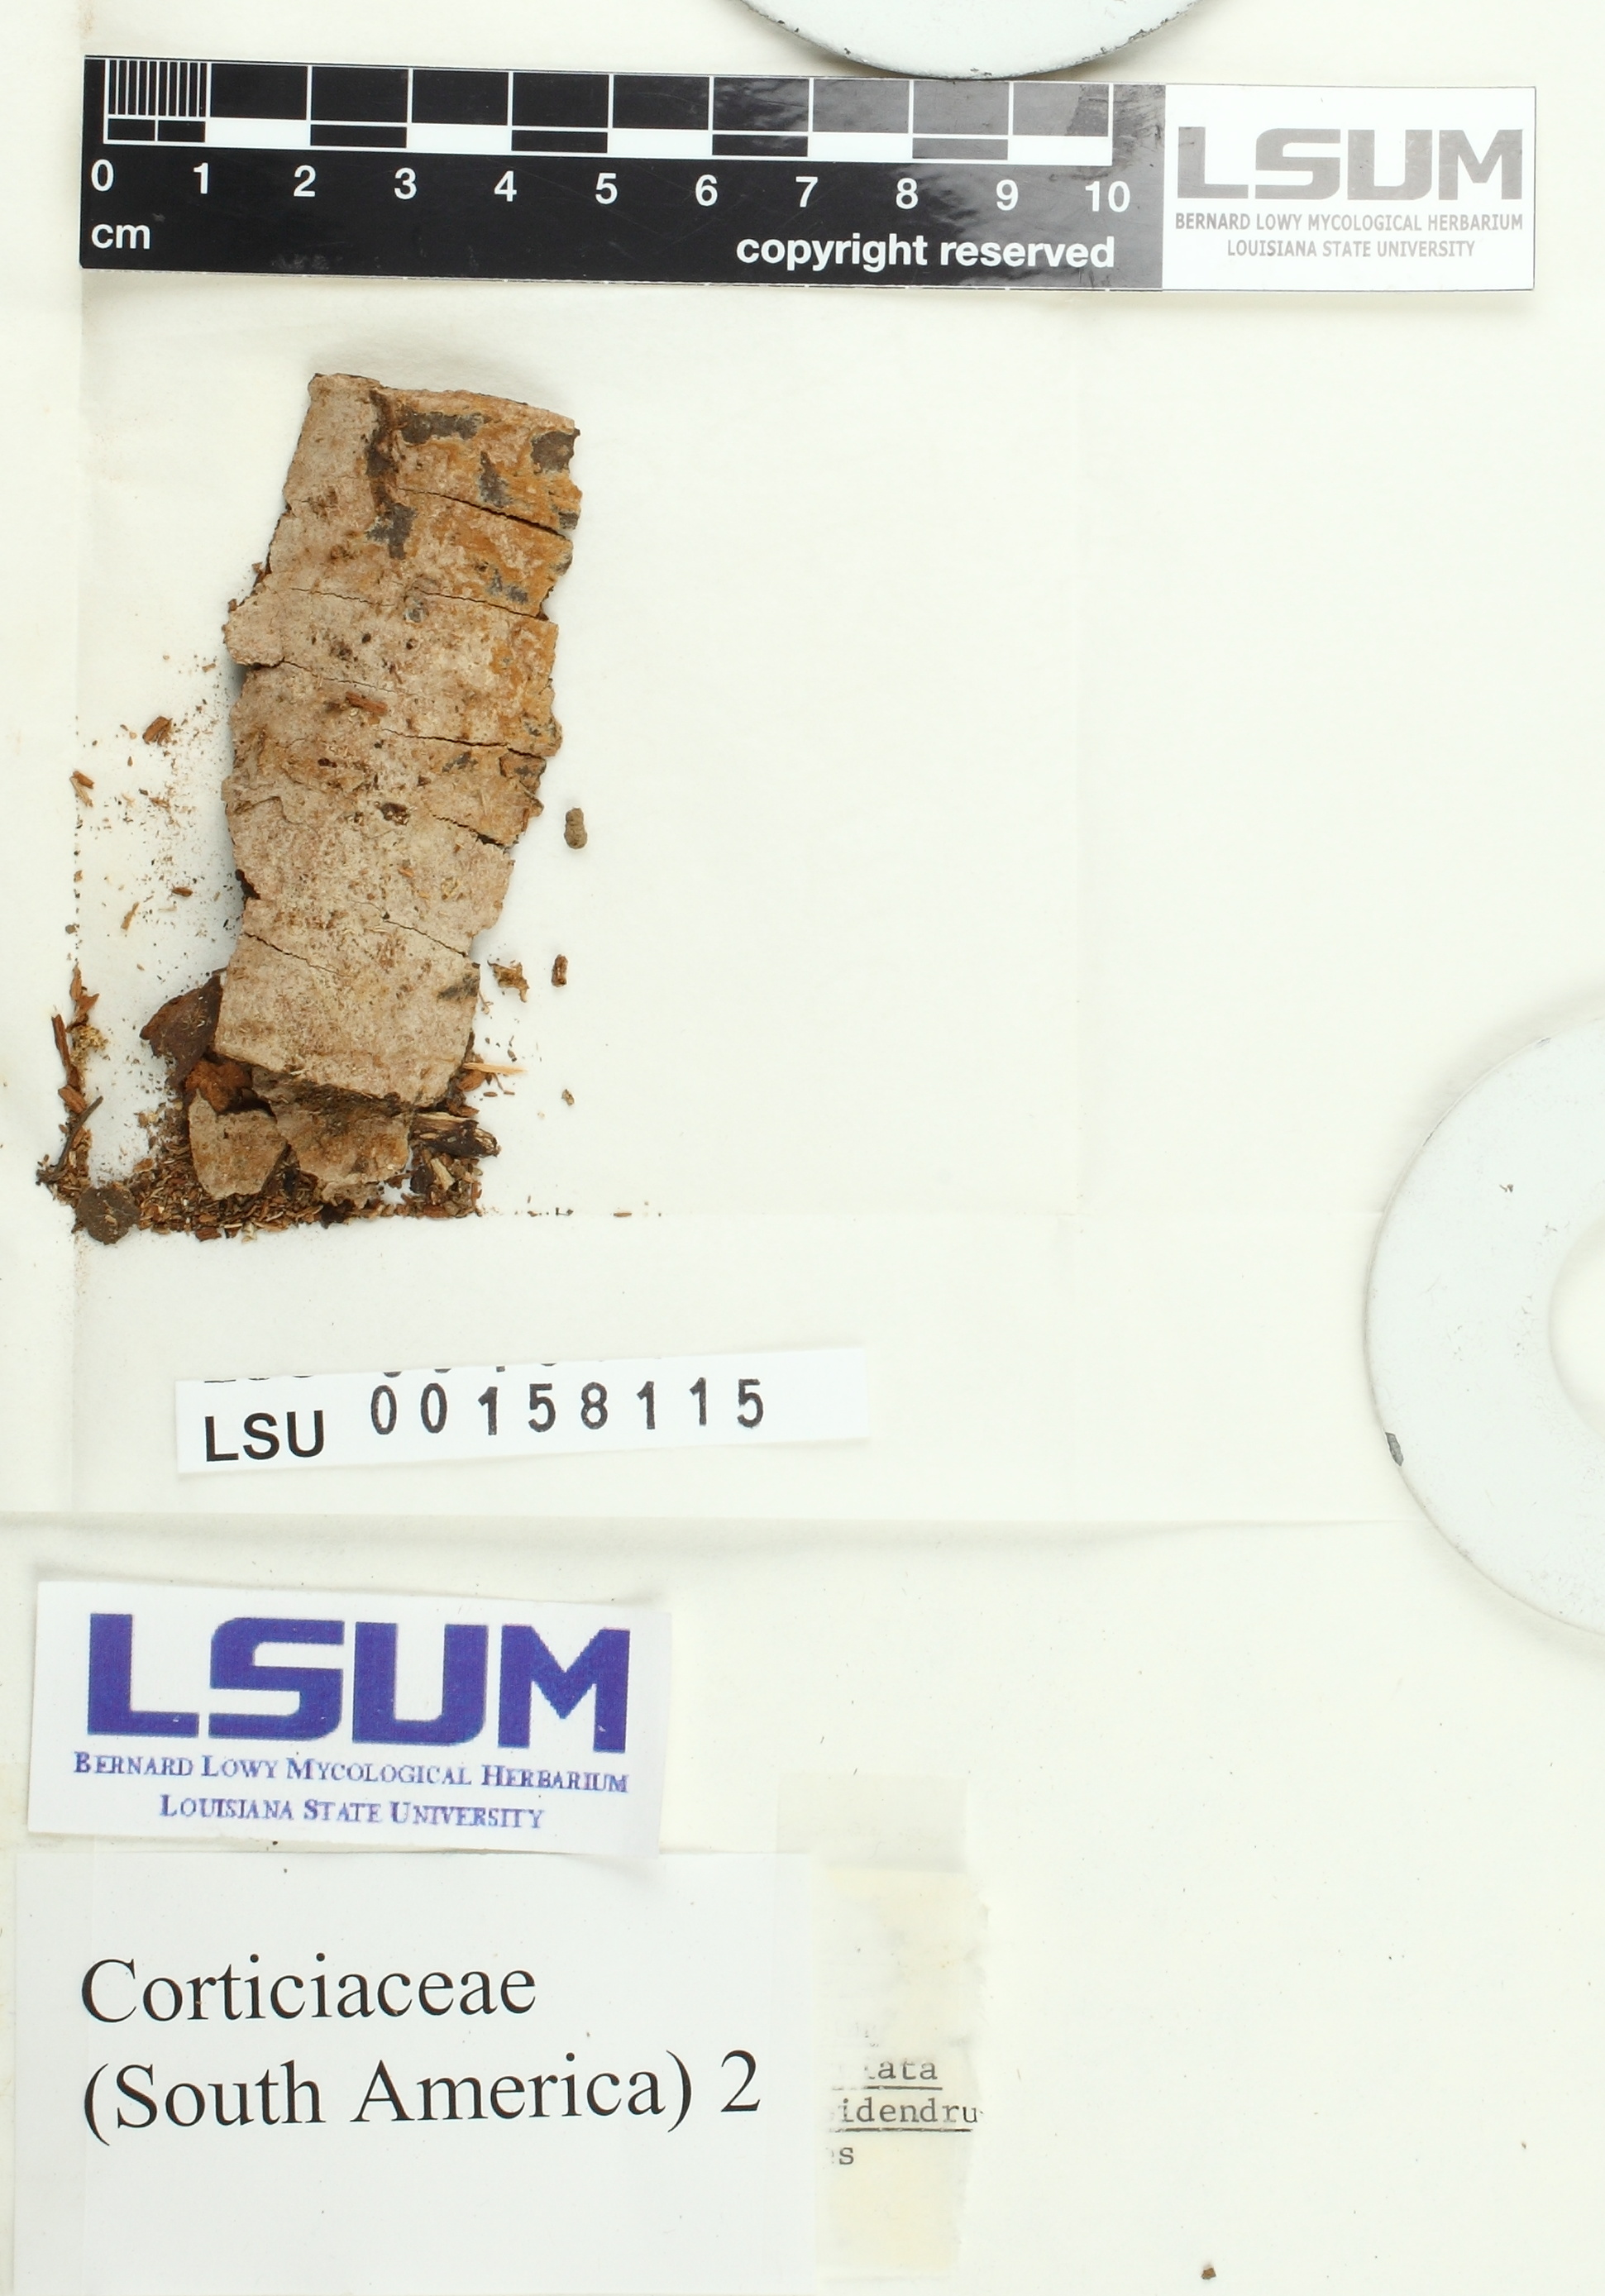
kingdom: Fungi
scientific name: Fungi
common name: Fungi
